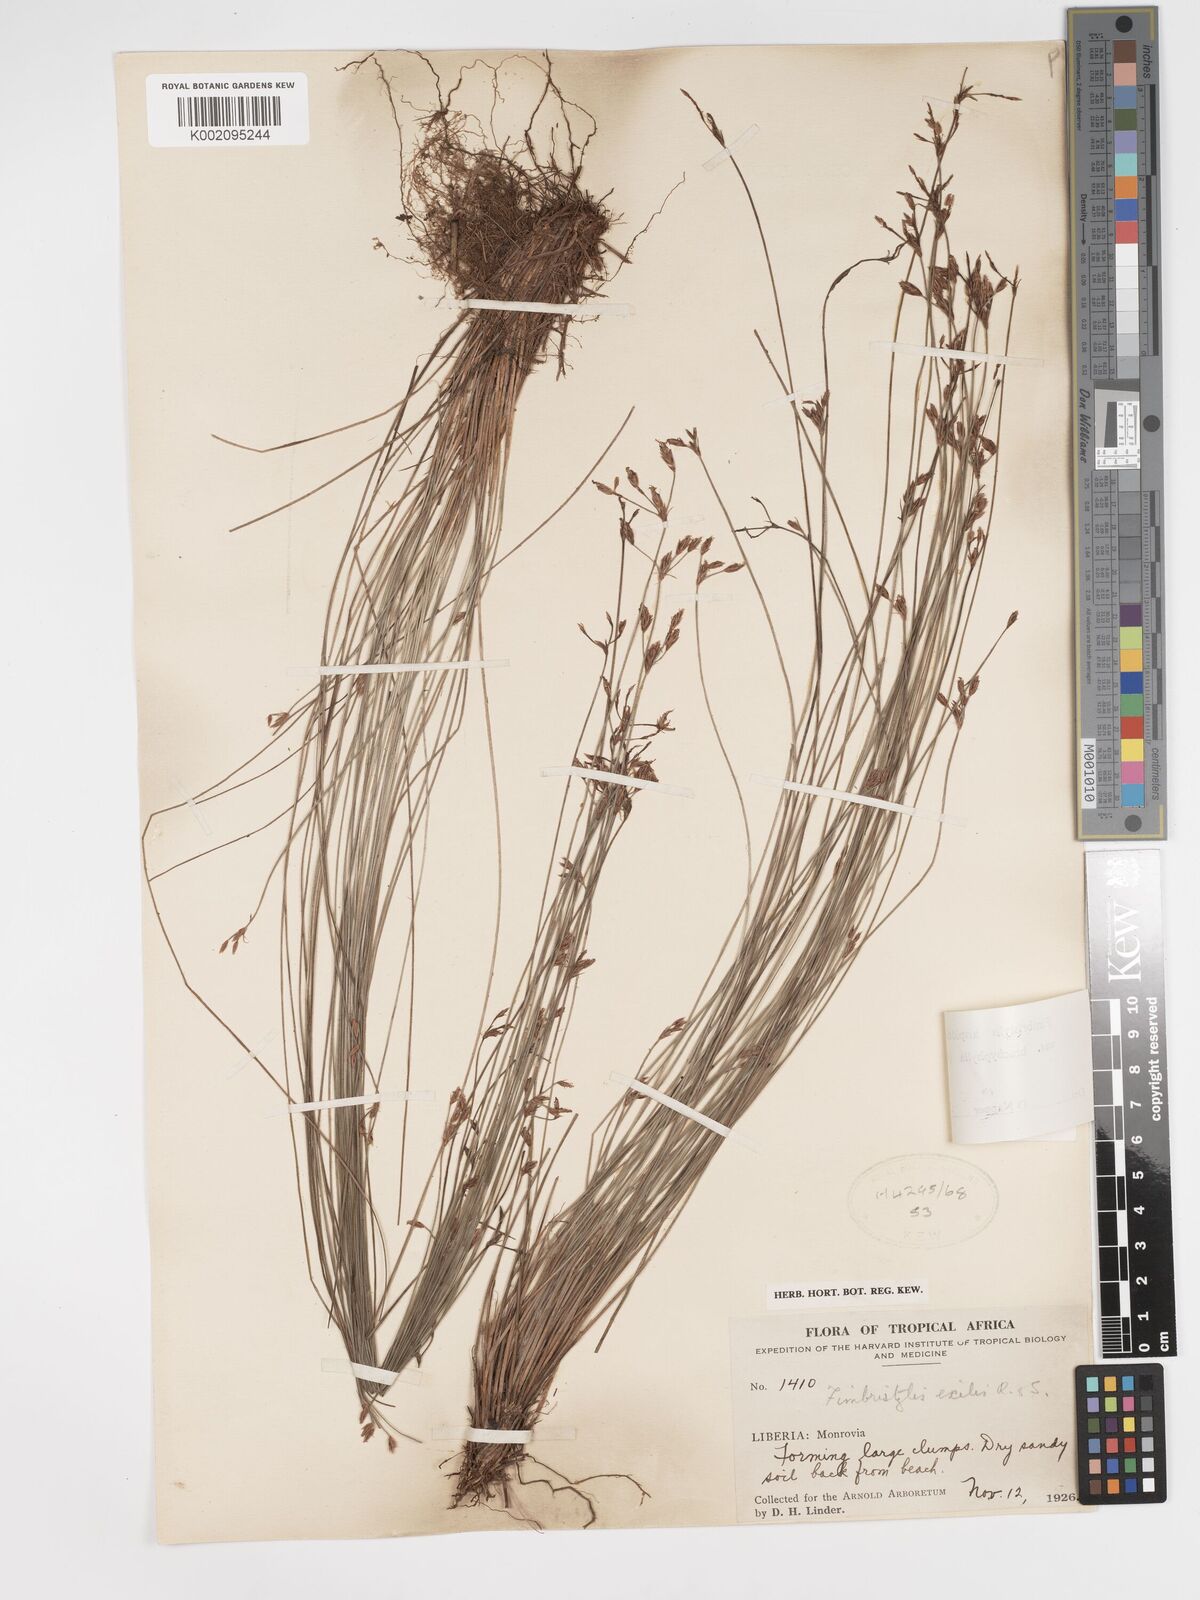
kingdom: Plantae
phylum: Tracheophyta
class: Liliopsida
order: Poales
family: Cyperaceae
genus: Bulbostylis
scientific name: Bulbostylis hispidula
